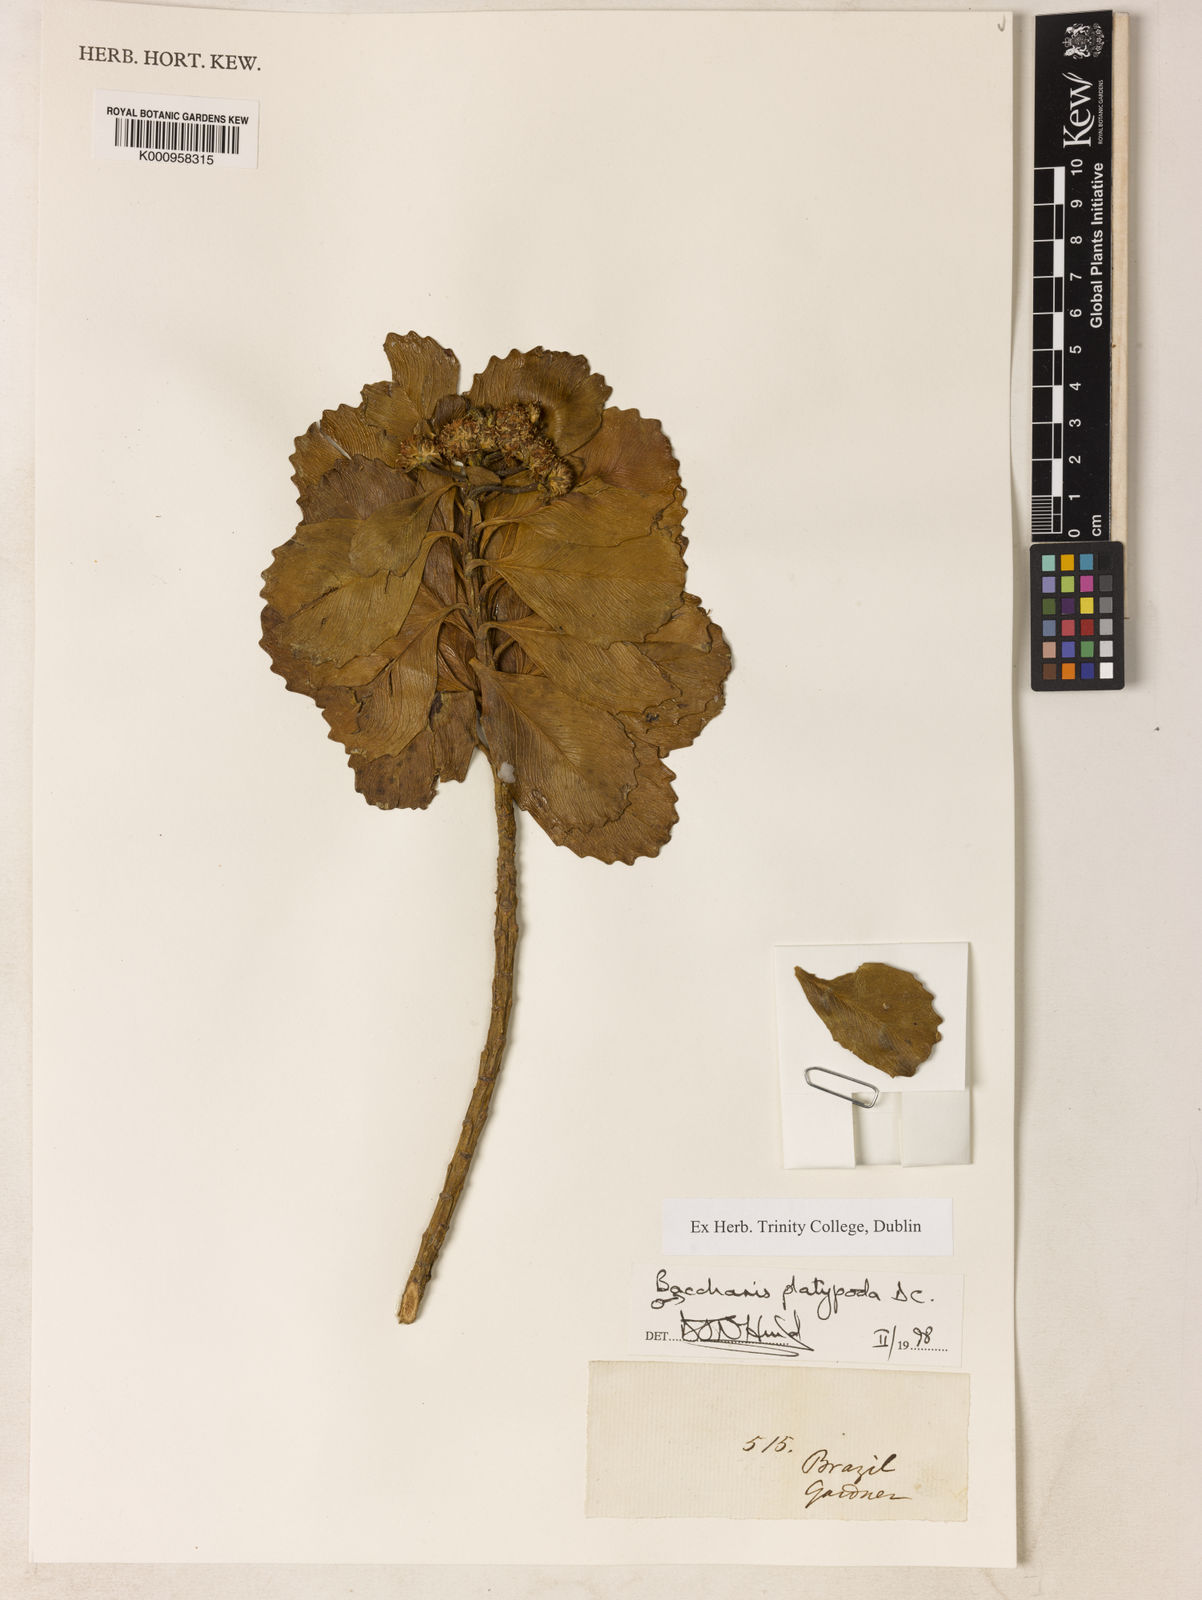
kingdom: Plantae
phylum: Tracheophyta
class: Magnoliopsida
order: Asterales
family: Asteraceae
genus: Baccharis
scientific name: Baccharis platypoda
